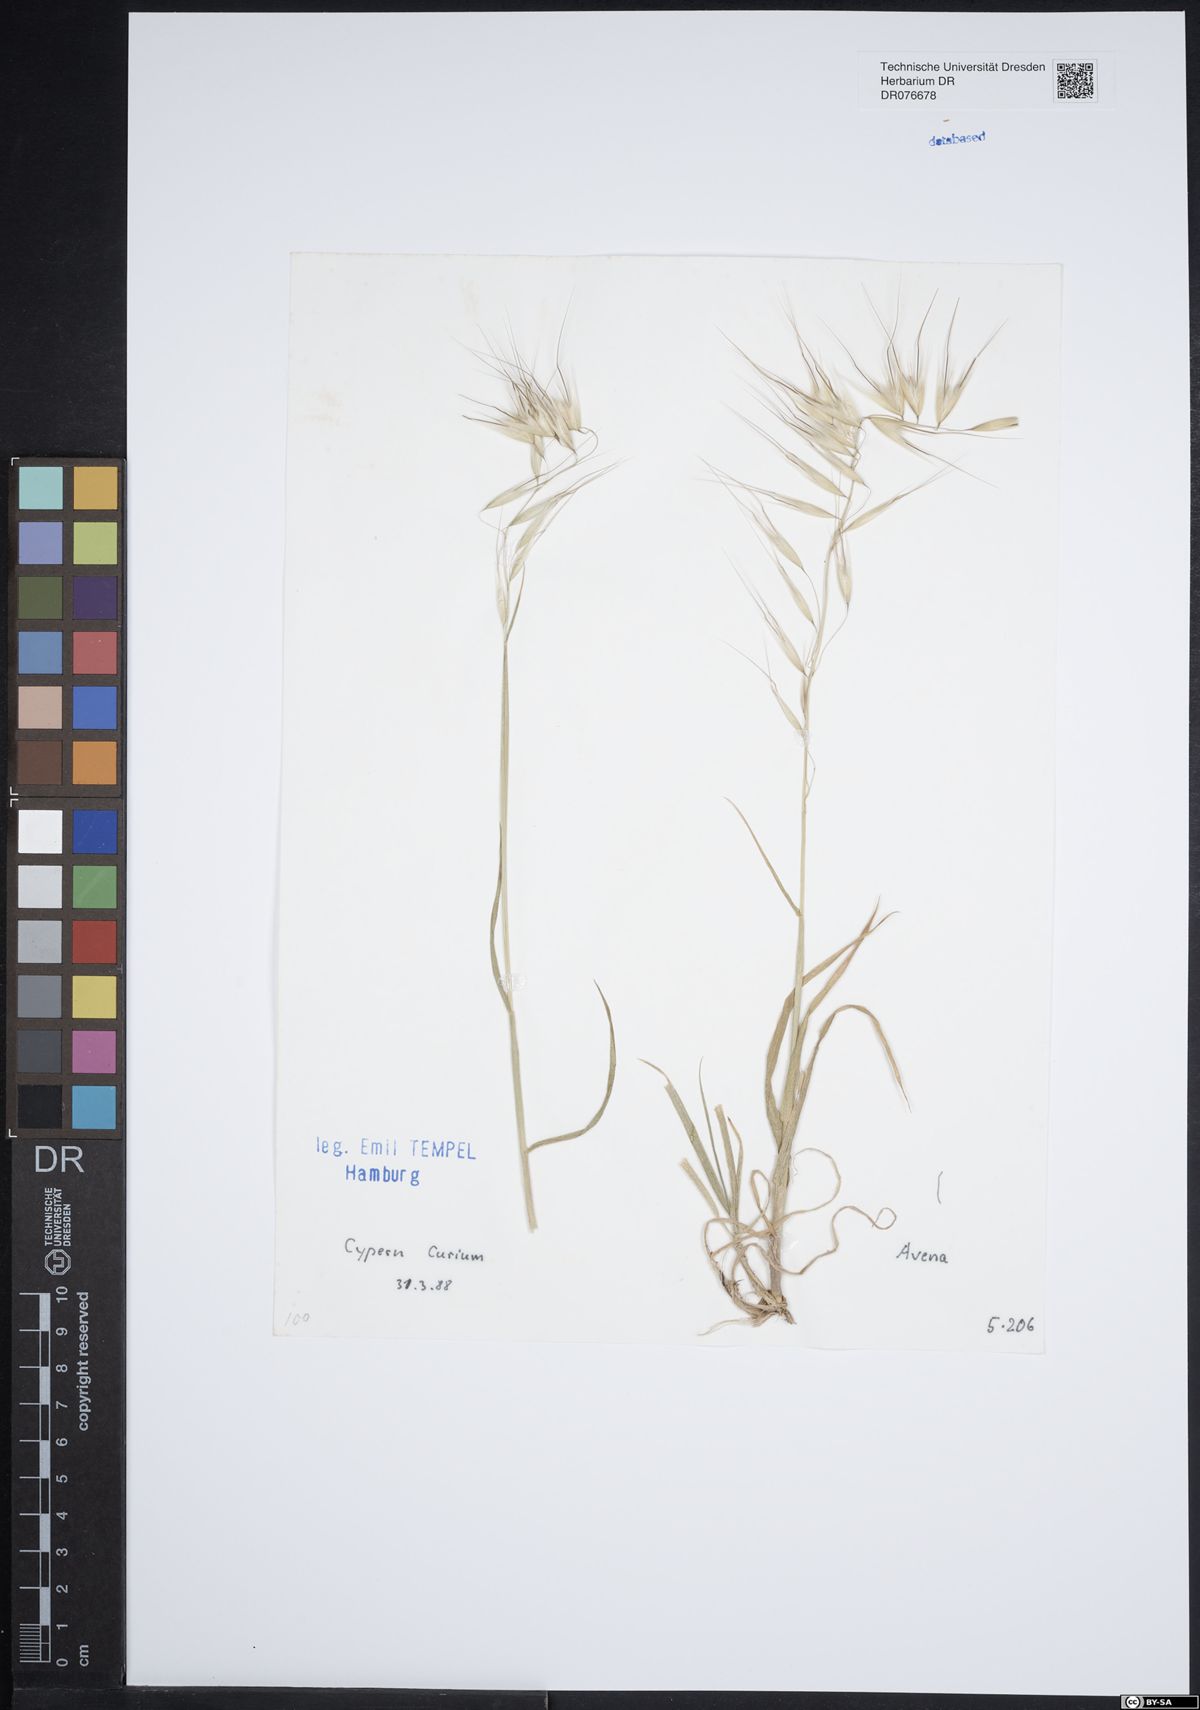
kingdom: Plantae
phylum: Tracheophyta
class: Liliopsida
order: Poales
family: Poaceae
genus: Avena
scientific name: Avena
